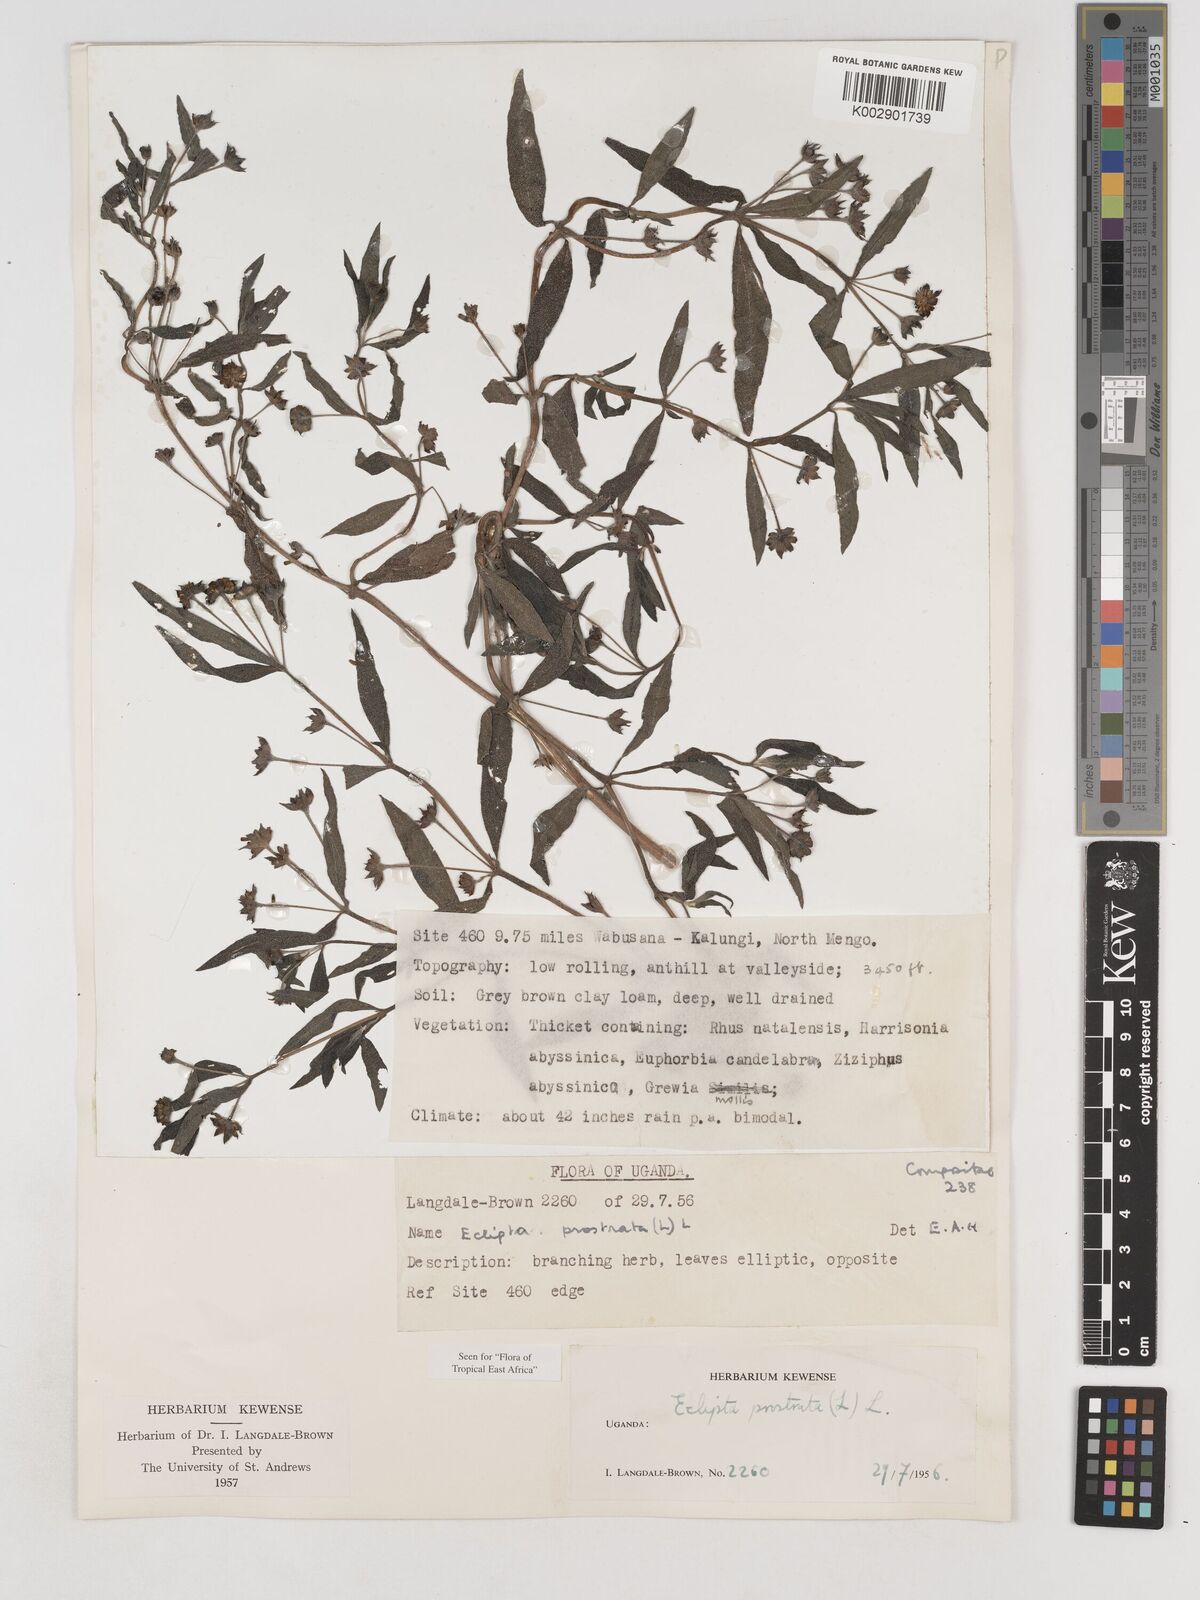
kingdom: Plantae
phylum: Tracheophyta
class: Magnoliopsida
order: Asterales
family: Asteraceae
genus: Eclipta
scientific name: Eclipta alba
